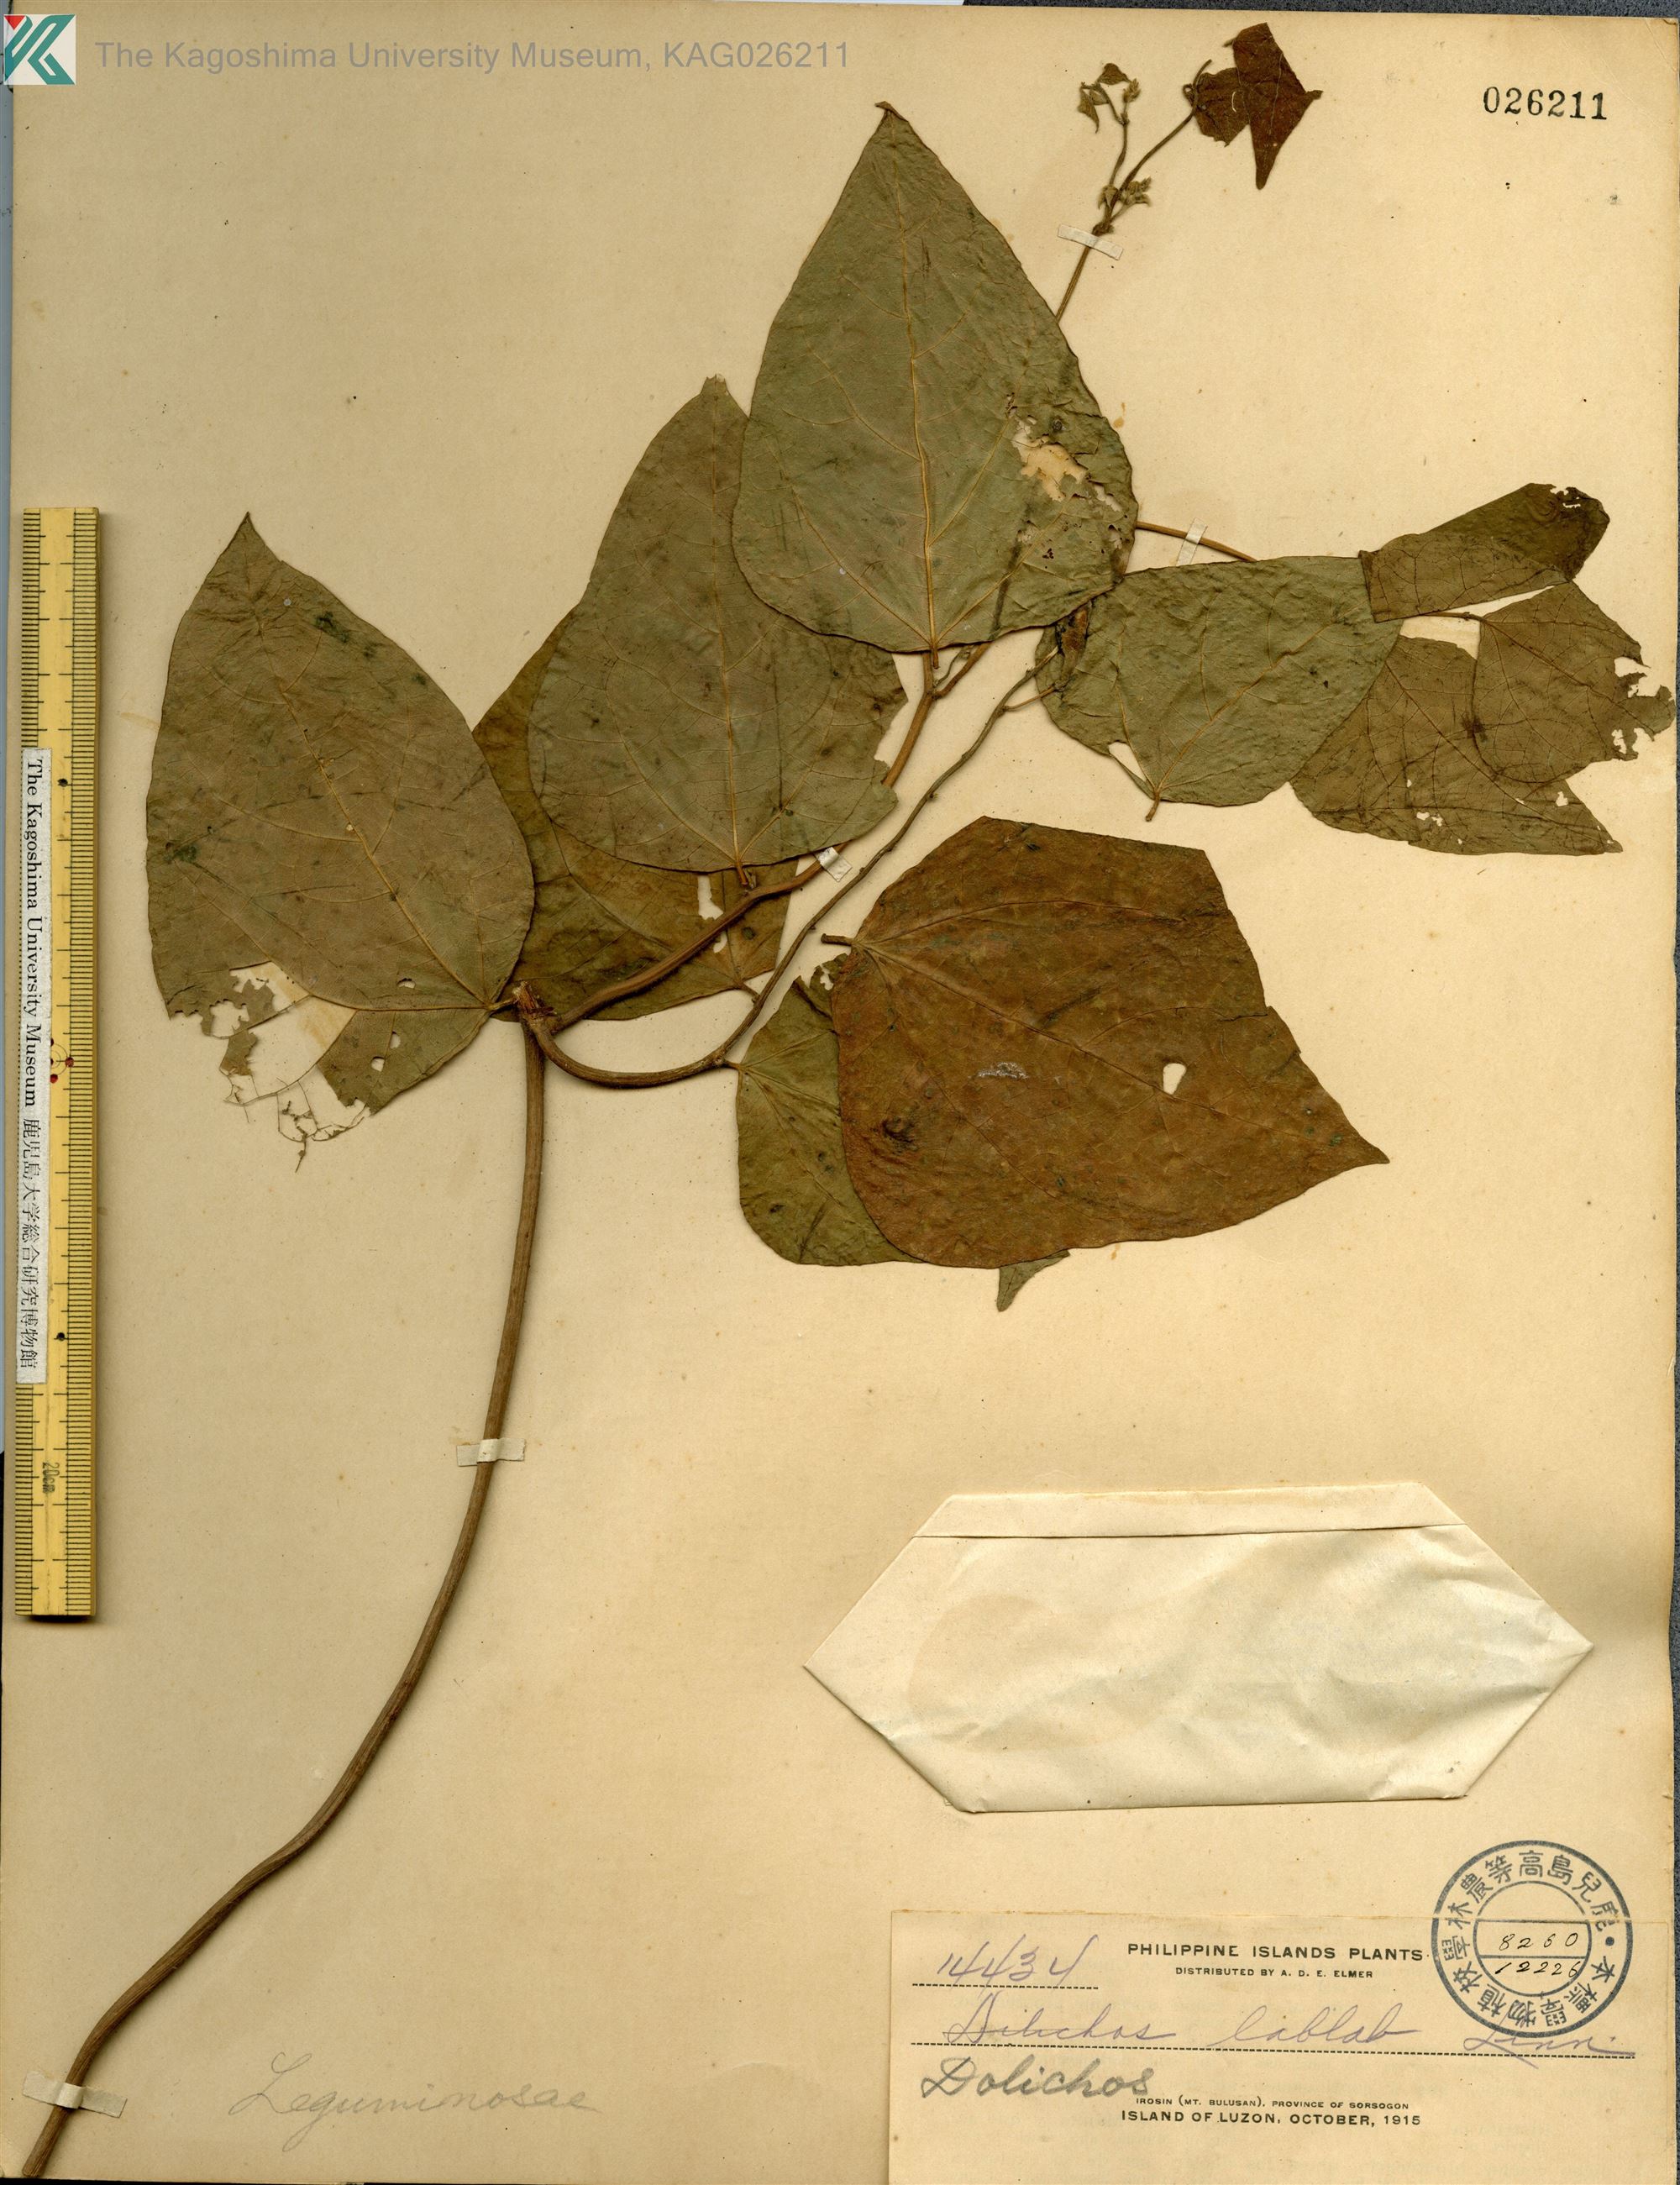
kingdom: Plantae
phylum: Tracheophyta
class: Magnoliopsida
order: Fabales
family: Fabaceae
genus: Lablab
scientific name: Lablab purpureus
